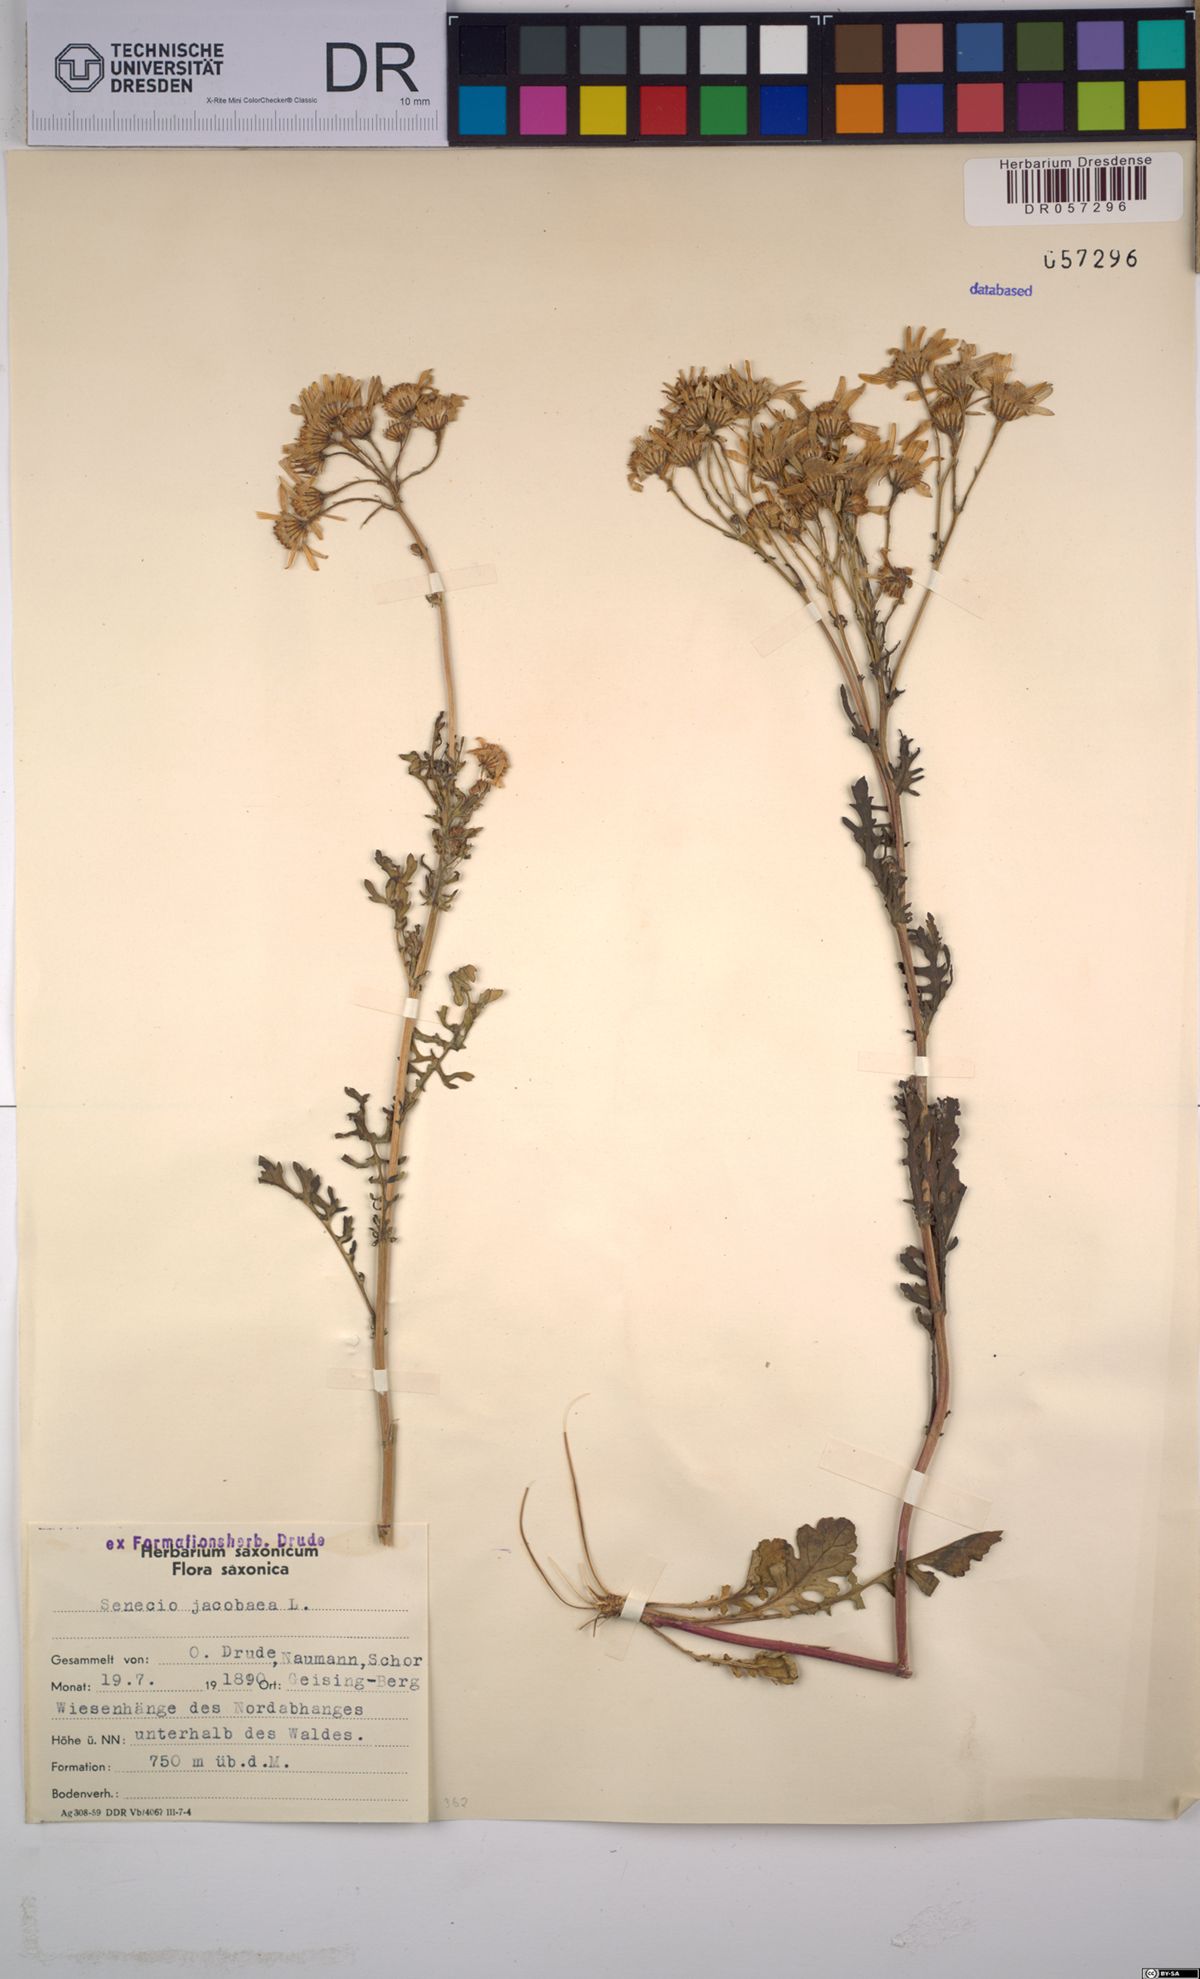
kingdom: Plantae
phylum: Tracheophyta
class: Magnoliopsida
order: Asterales
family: Asteraceae
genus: Jacobaea
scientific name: Jacobaea vulgaris
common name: Stinking willie
